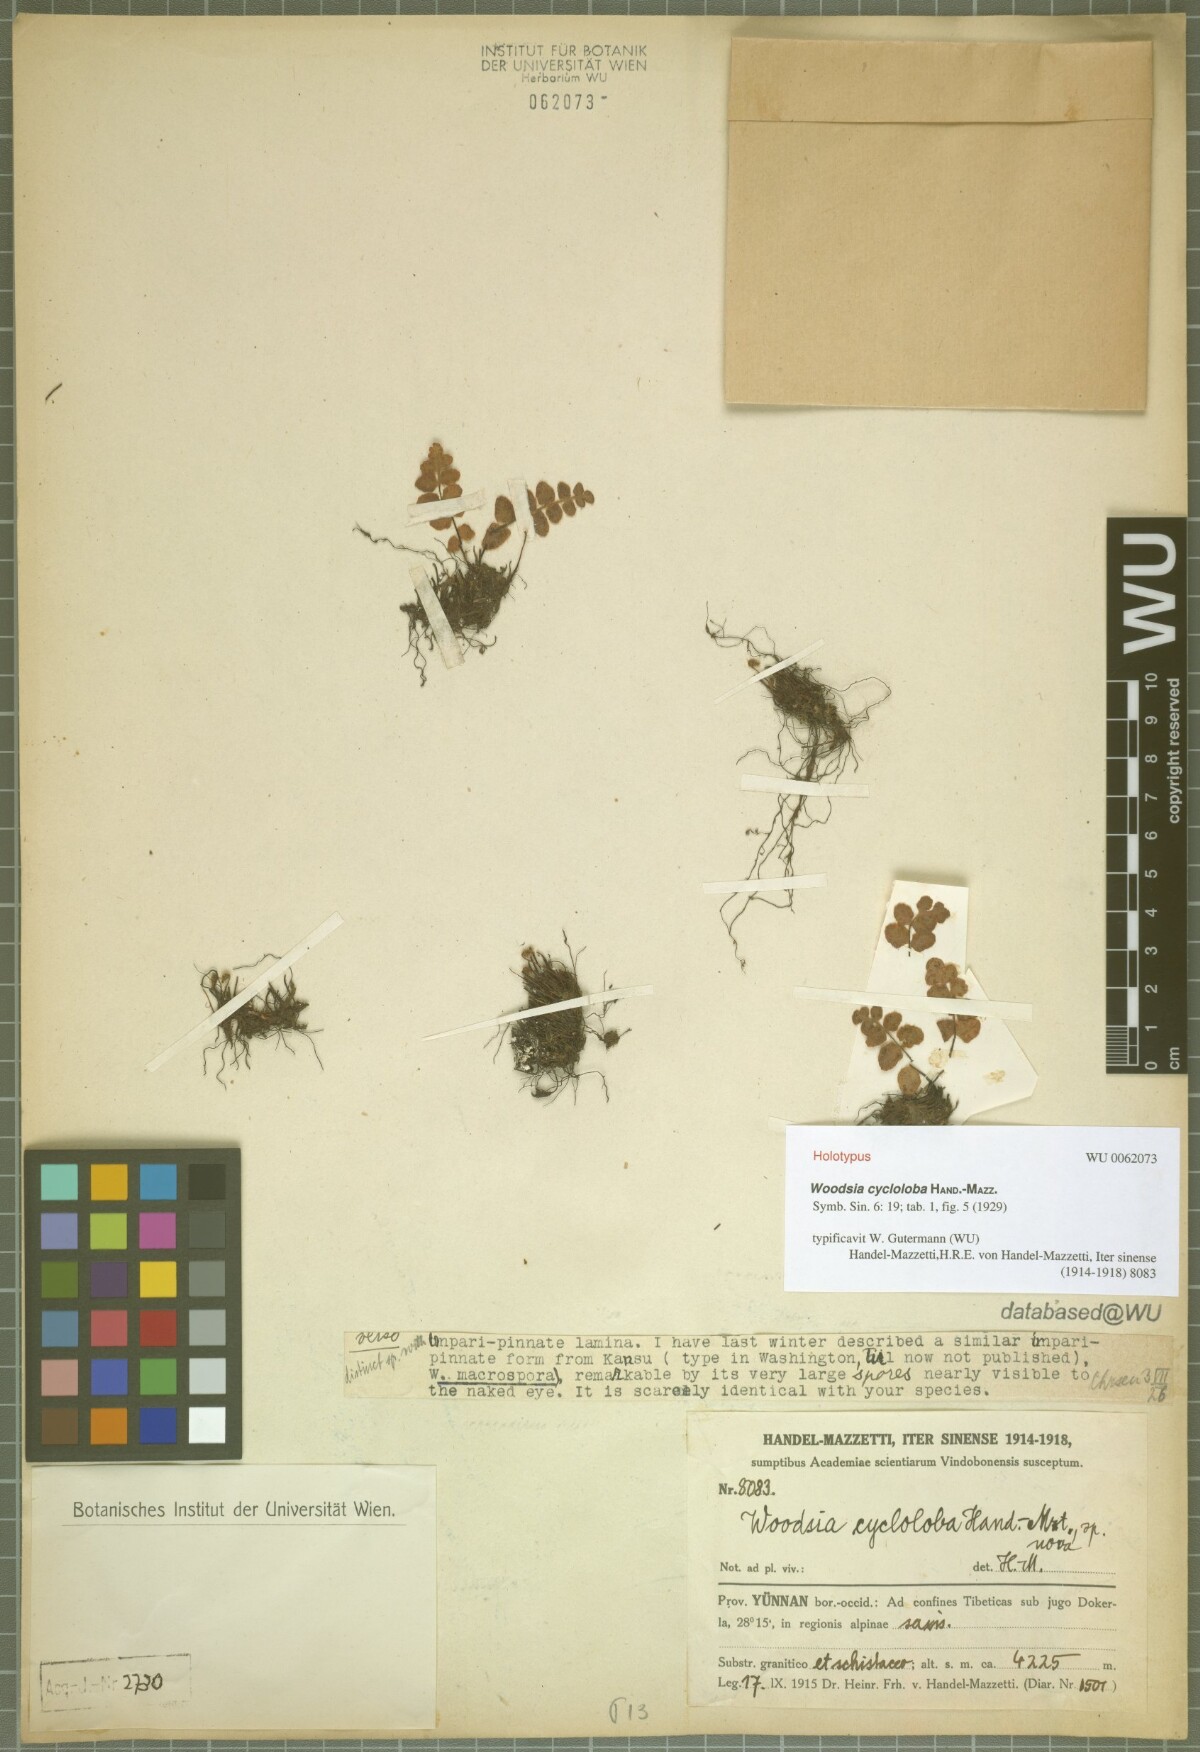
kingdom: Plantae
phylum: Tracheophyta
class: Polypodiopsida
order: Polypodiales
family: Woodsiaceae
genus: Woodsia
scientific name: Woodsia cycloloba
